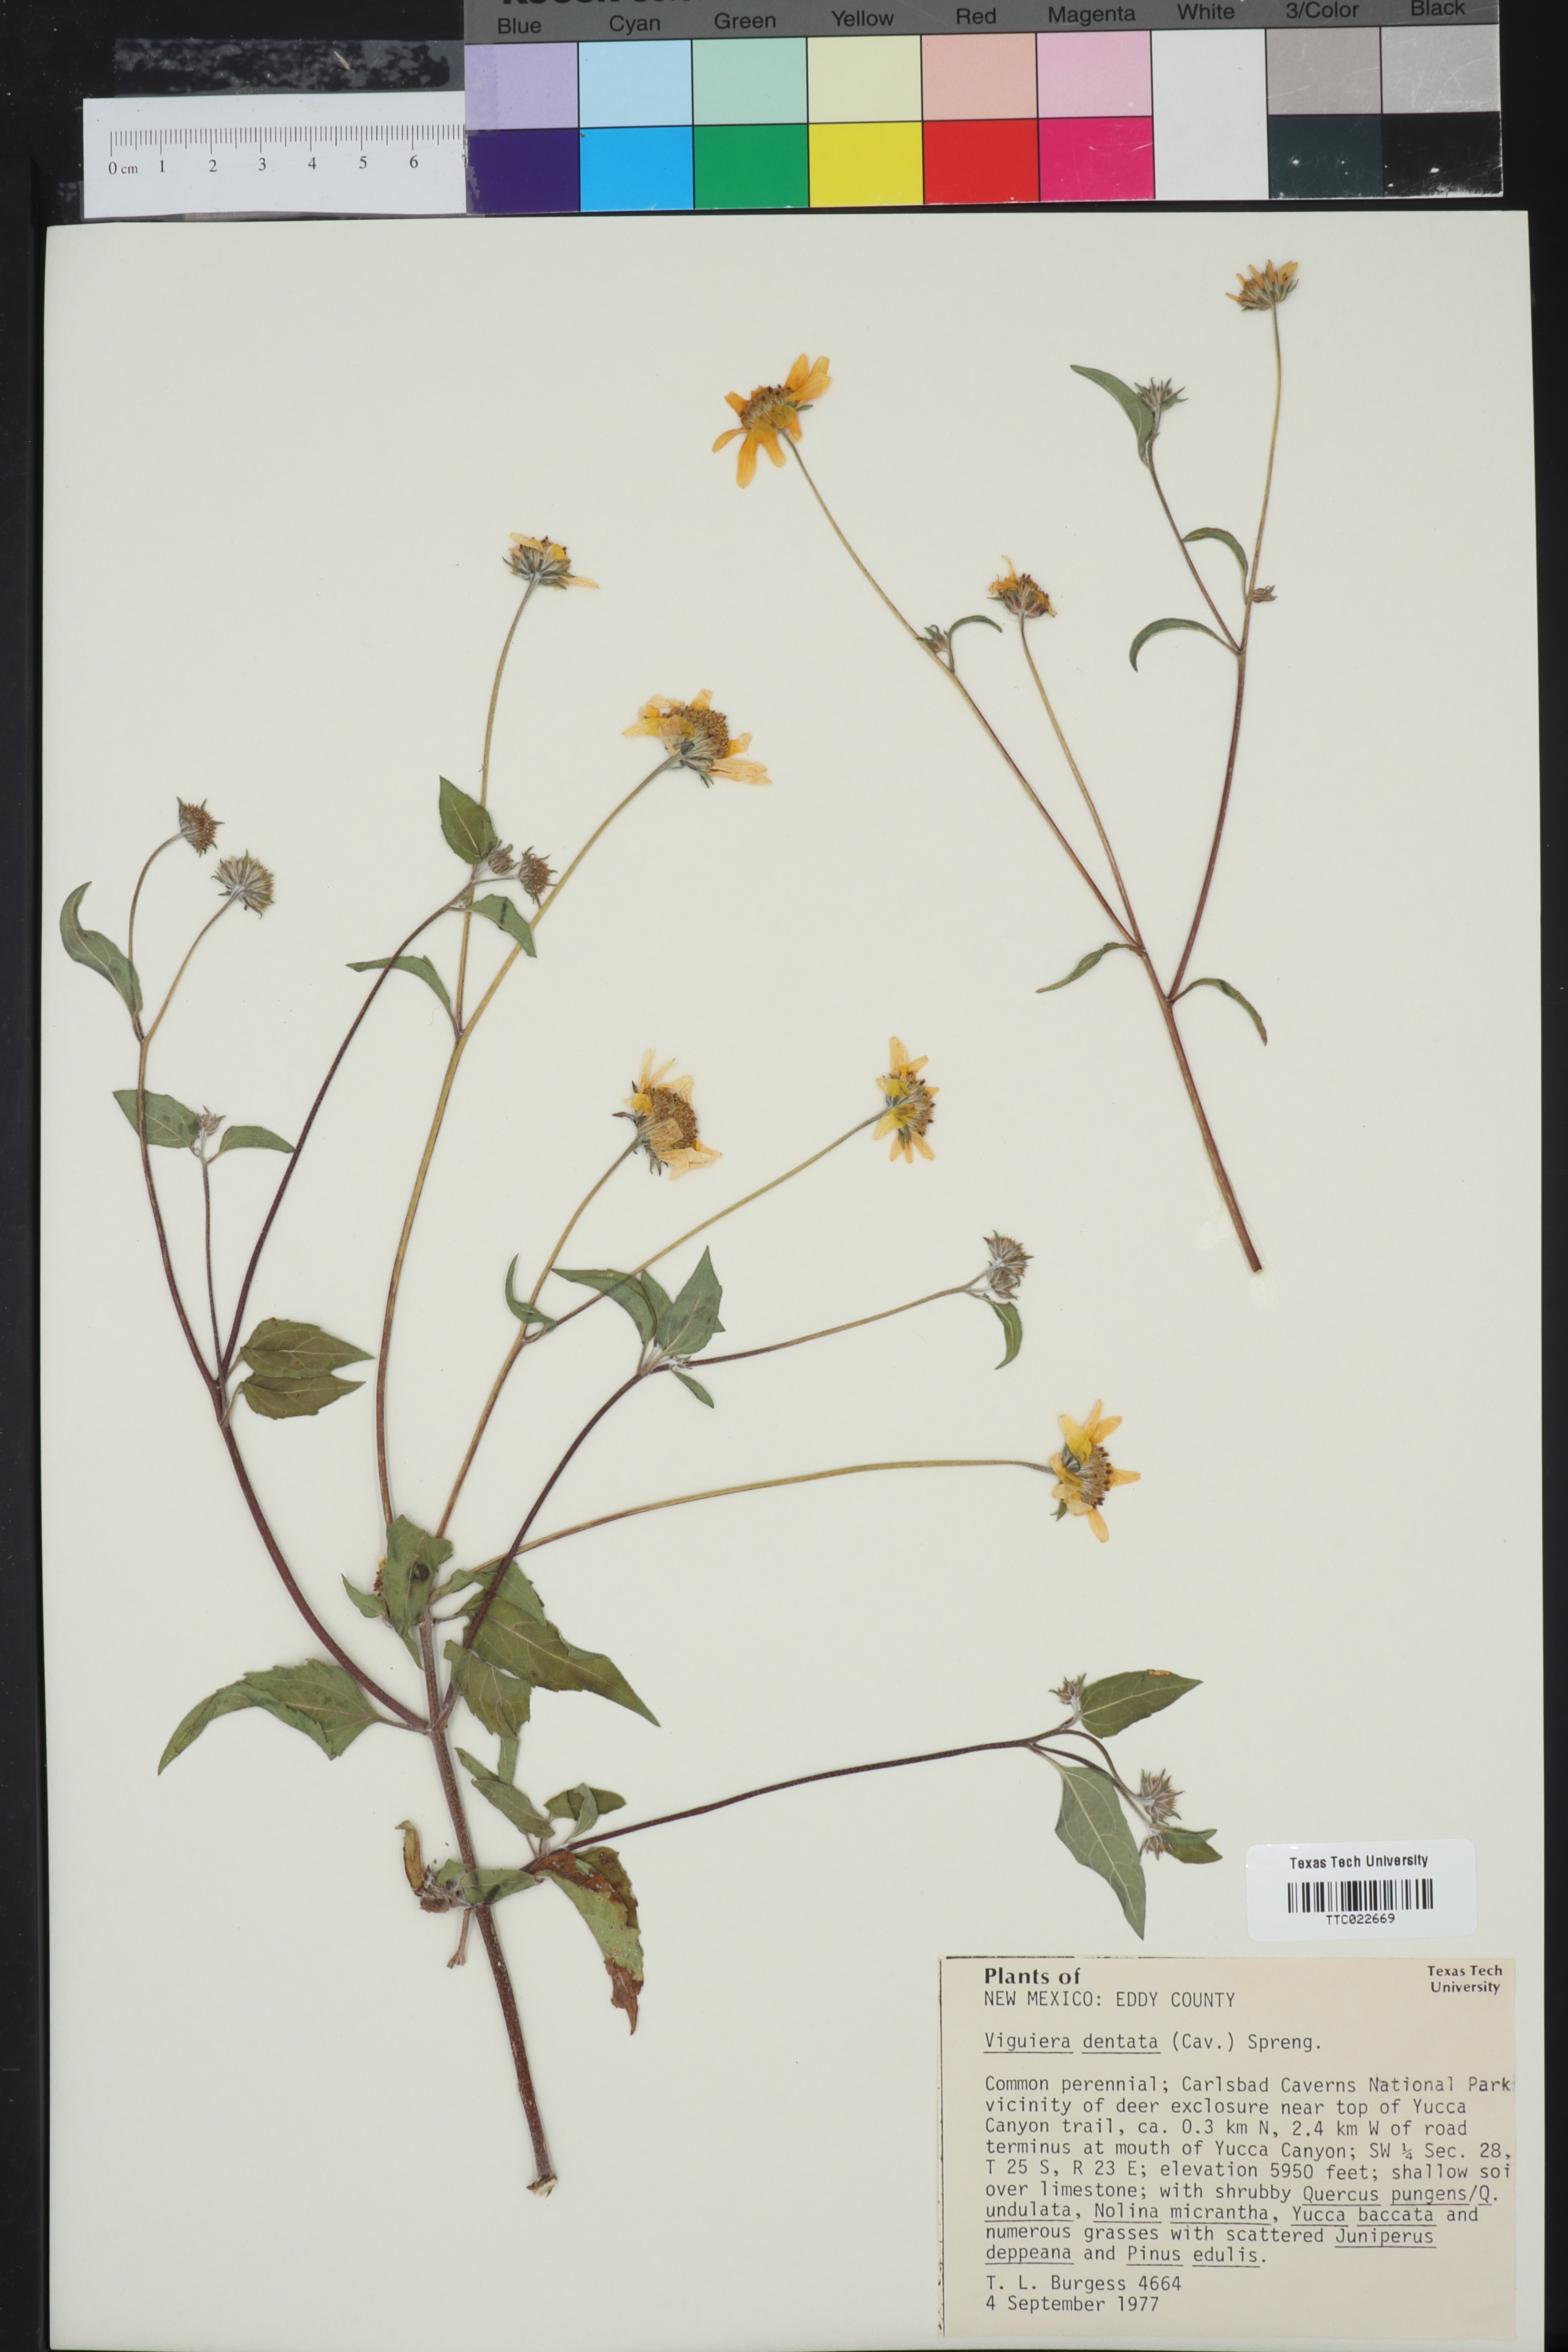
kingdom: Plantae
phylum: Tracheophyta
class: Magnoliopsida
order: Asterales
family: Asteraceae
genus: Viguiera
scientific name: Viguiera dentata
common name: Toothleaf
